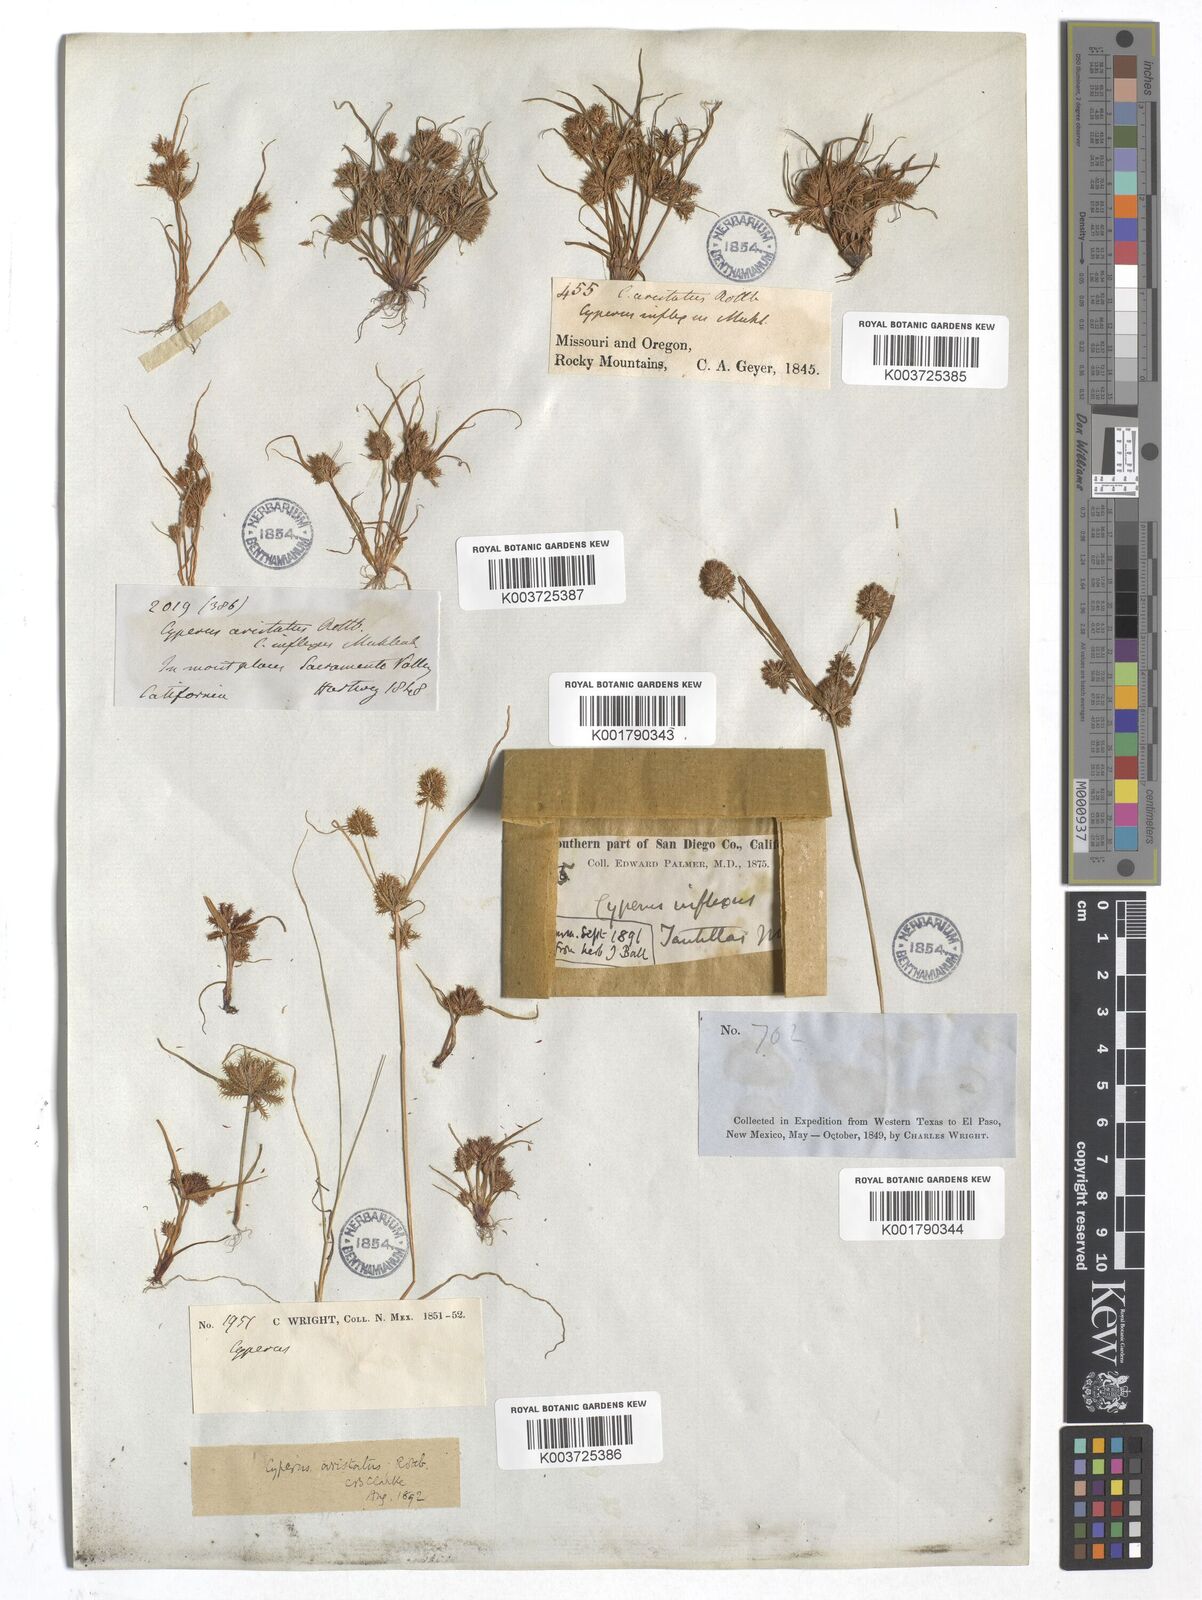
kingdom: Plantae
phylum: Tracheophyta
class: Liliopsida
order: Poales
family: Cyperaceae
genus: Cyperus
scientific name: Cyperus squarrosus
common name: Awned cyperus
